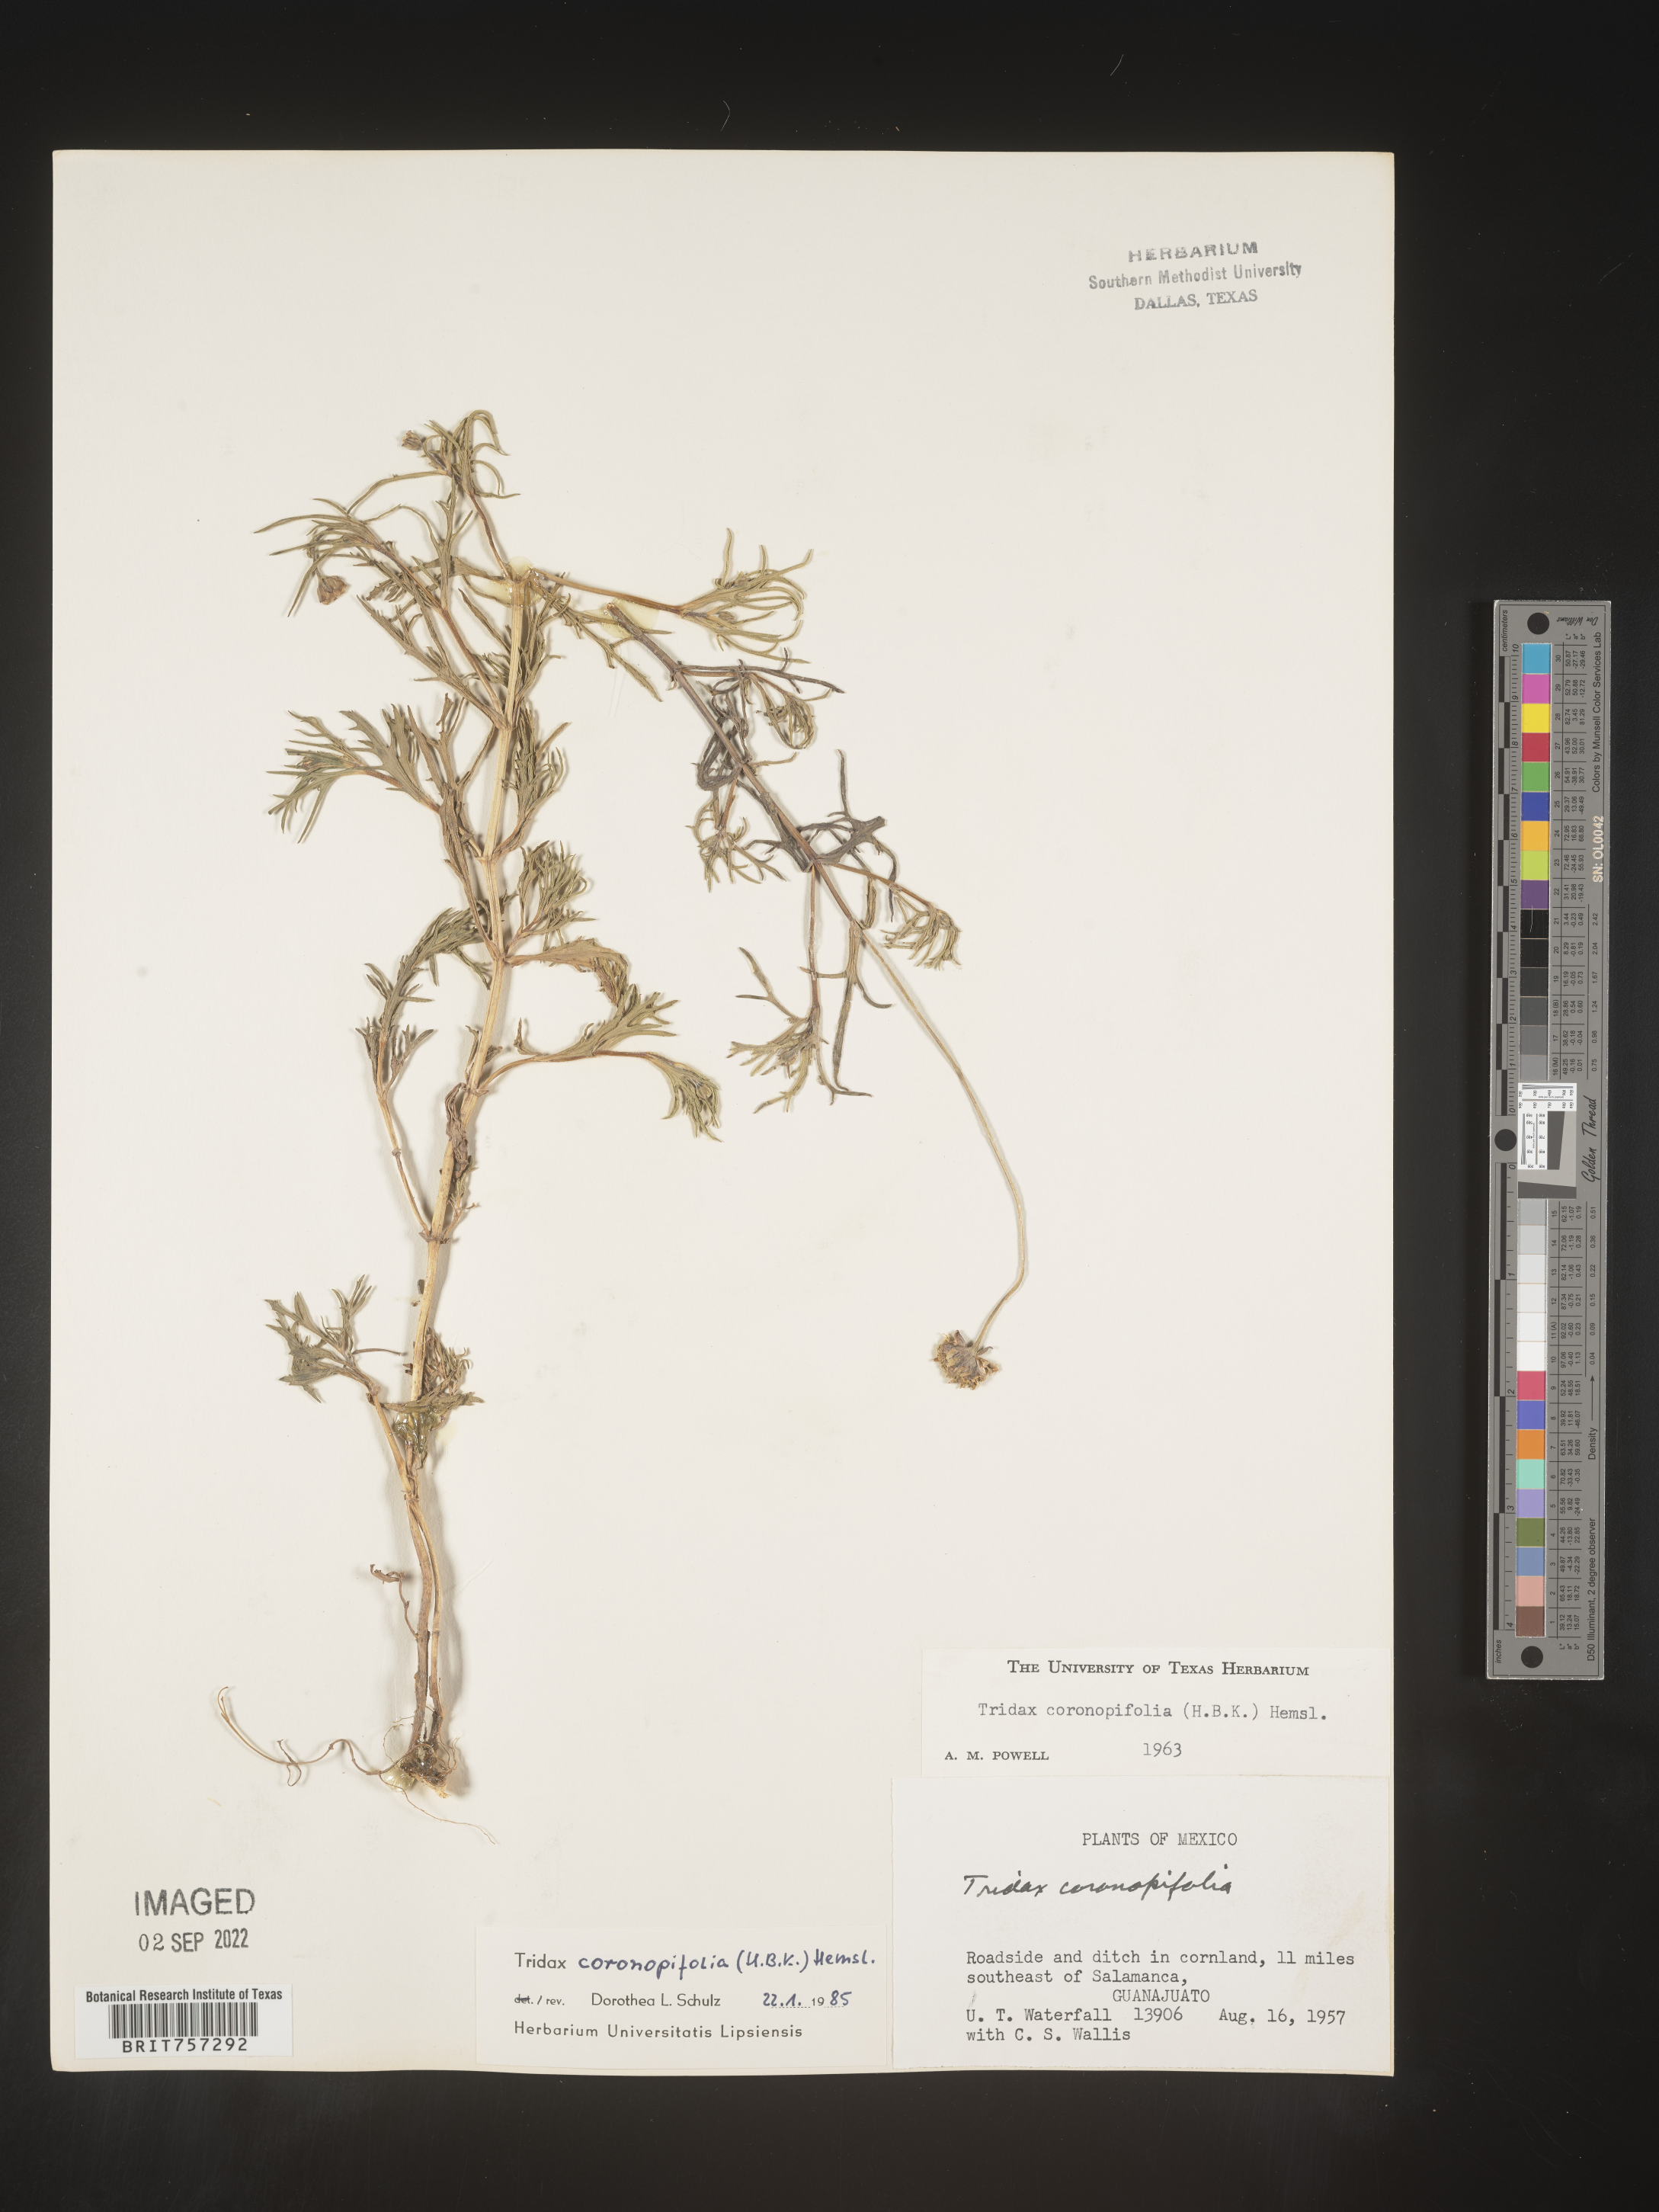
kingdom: Plantae
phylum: Tracheophyta
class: Magnoliopsida
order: Asterales
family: Asteraceae
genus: Tridax
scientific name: Tridax
